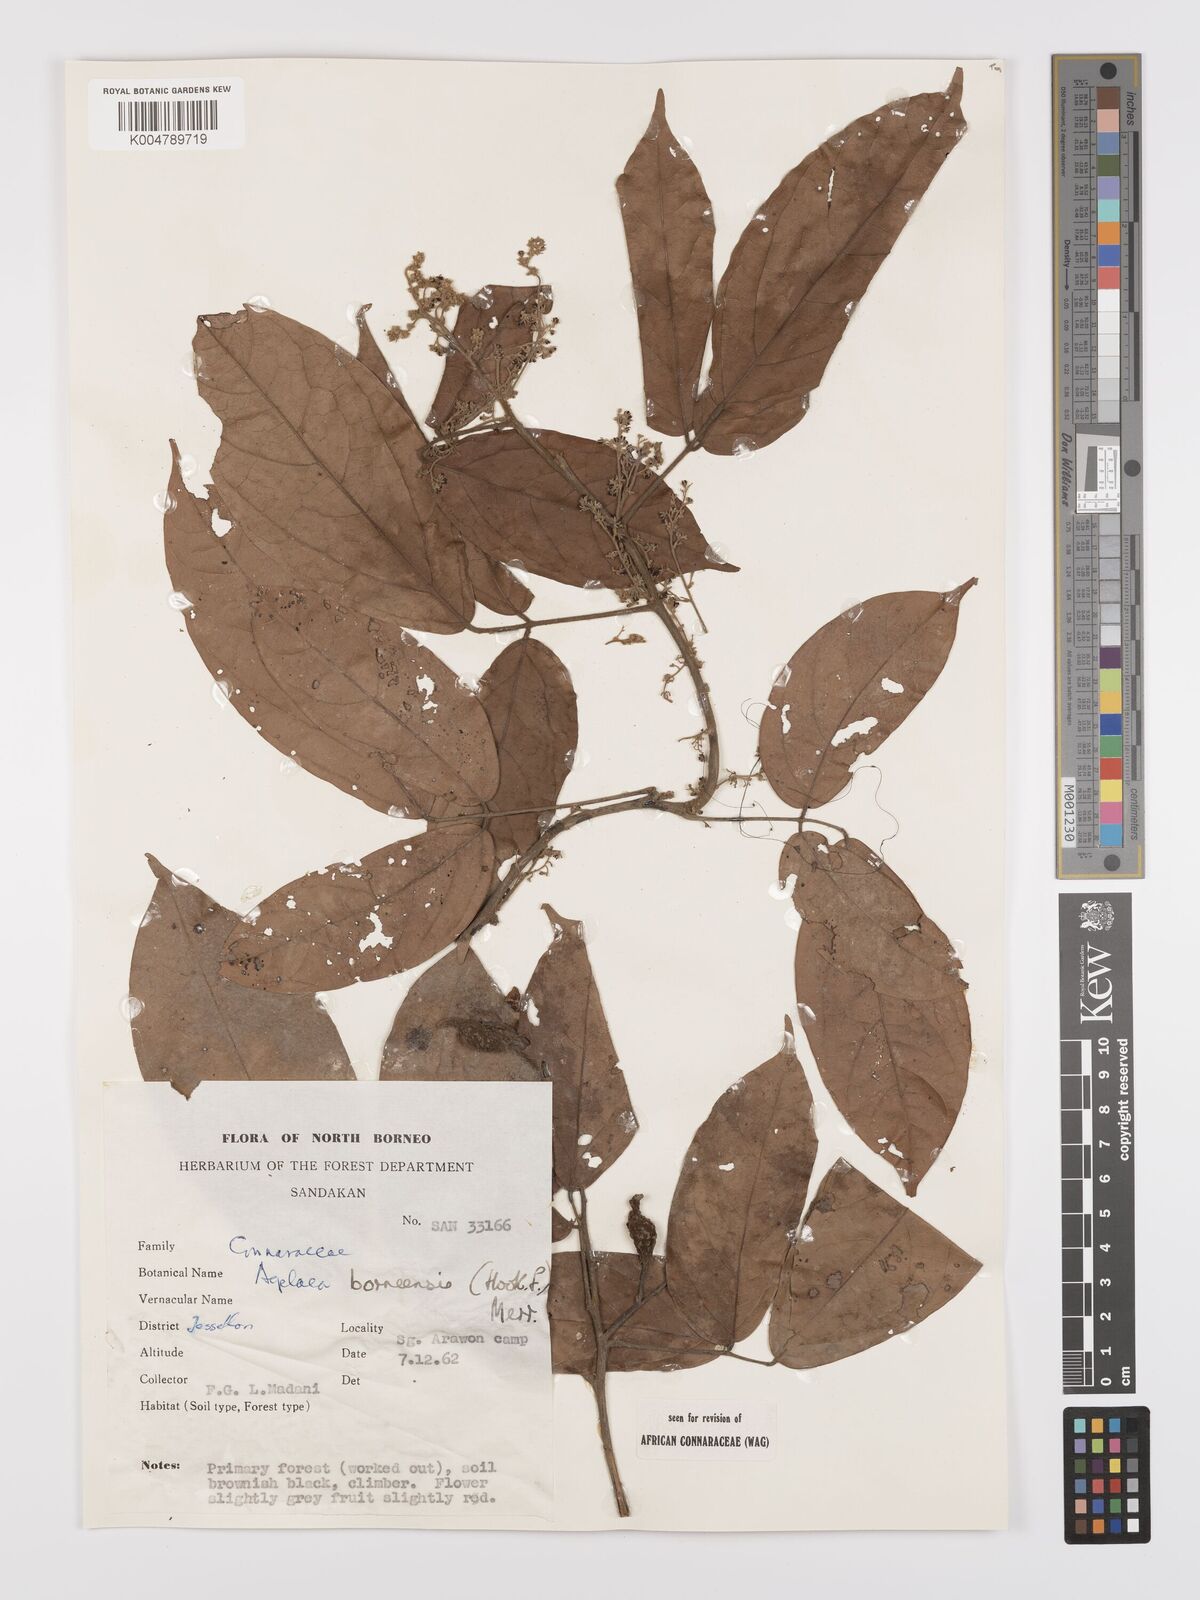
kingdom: Plantae
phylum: Tracheophyta
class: Magnoliopsida
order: Oxalidales
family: Connaraceae
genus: Agelaea
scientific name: Agelaea borneensis
